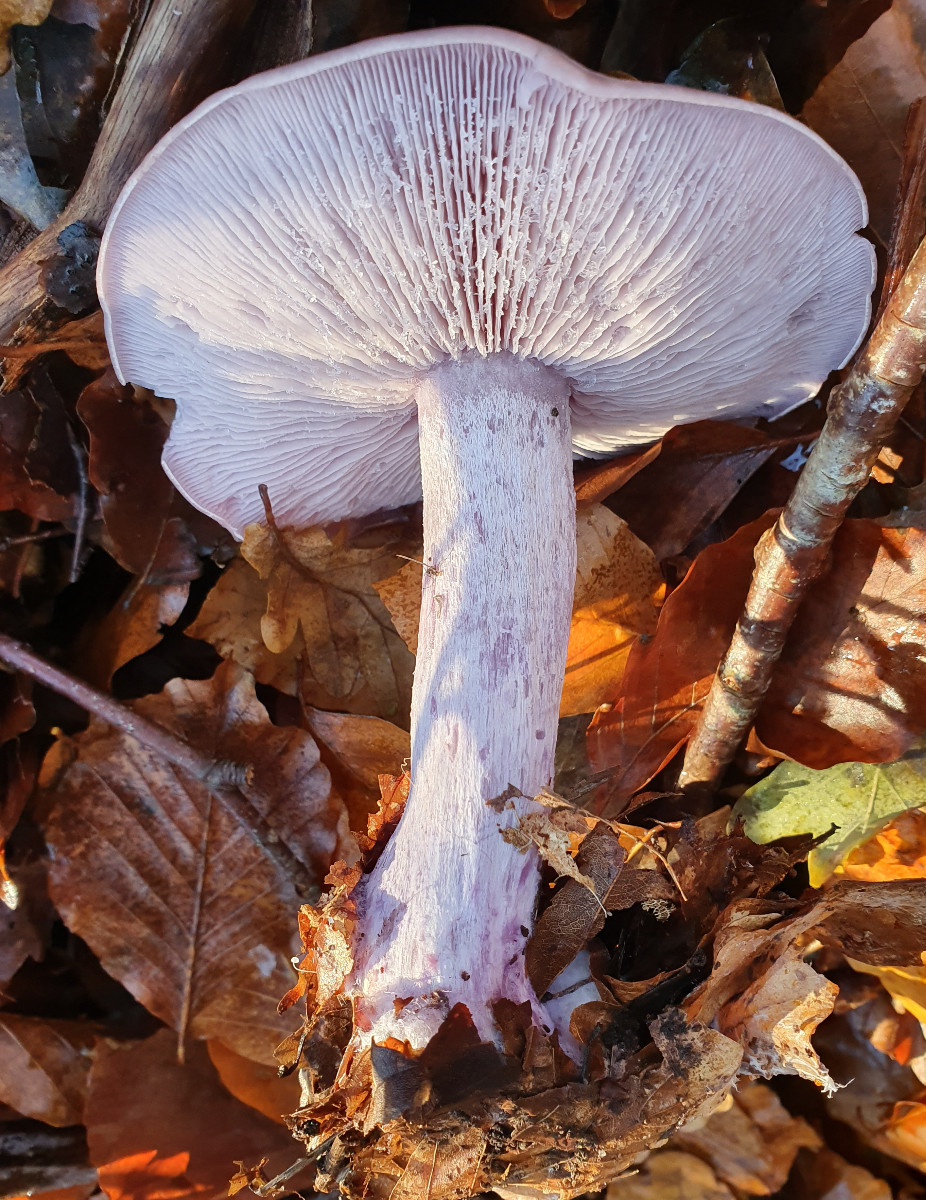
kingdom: Fungi
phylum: Basidiomycota
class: Agaricomycetes
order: Agaricales
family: Tricholomataceae
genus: Lepista
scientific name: Lepista nuda
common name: violet hekseringshat
